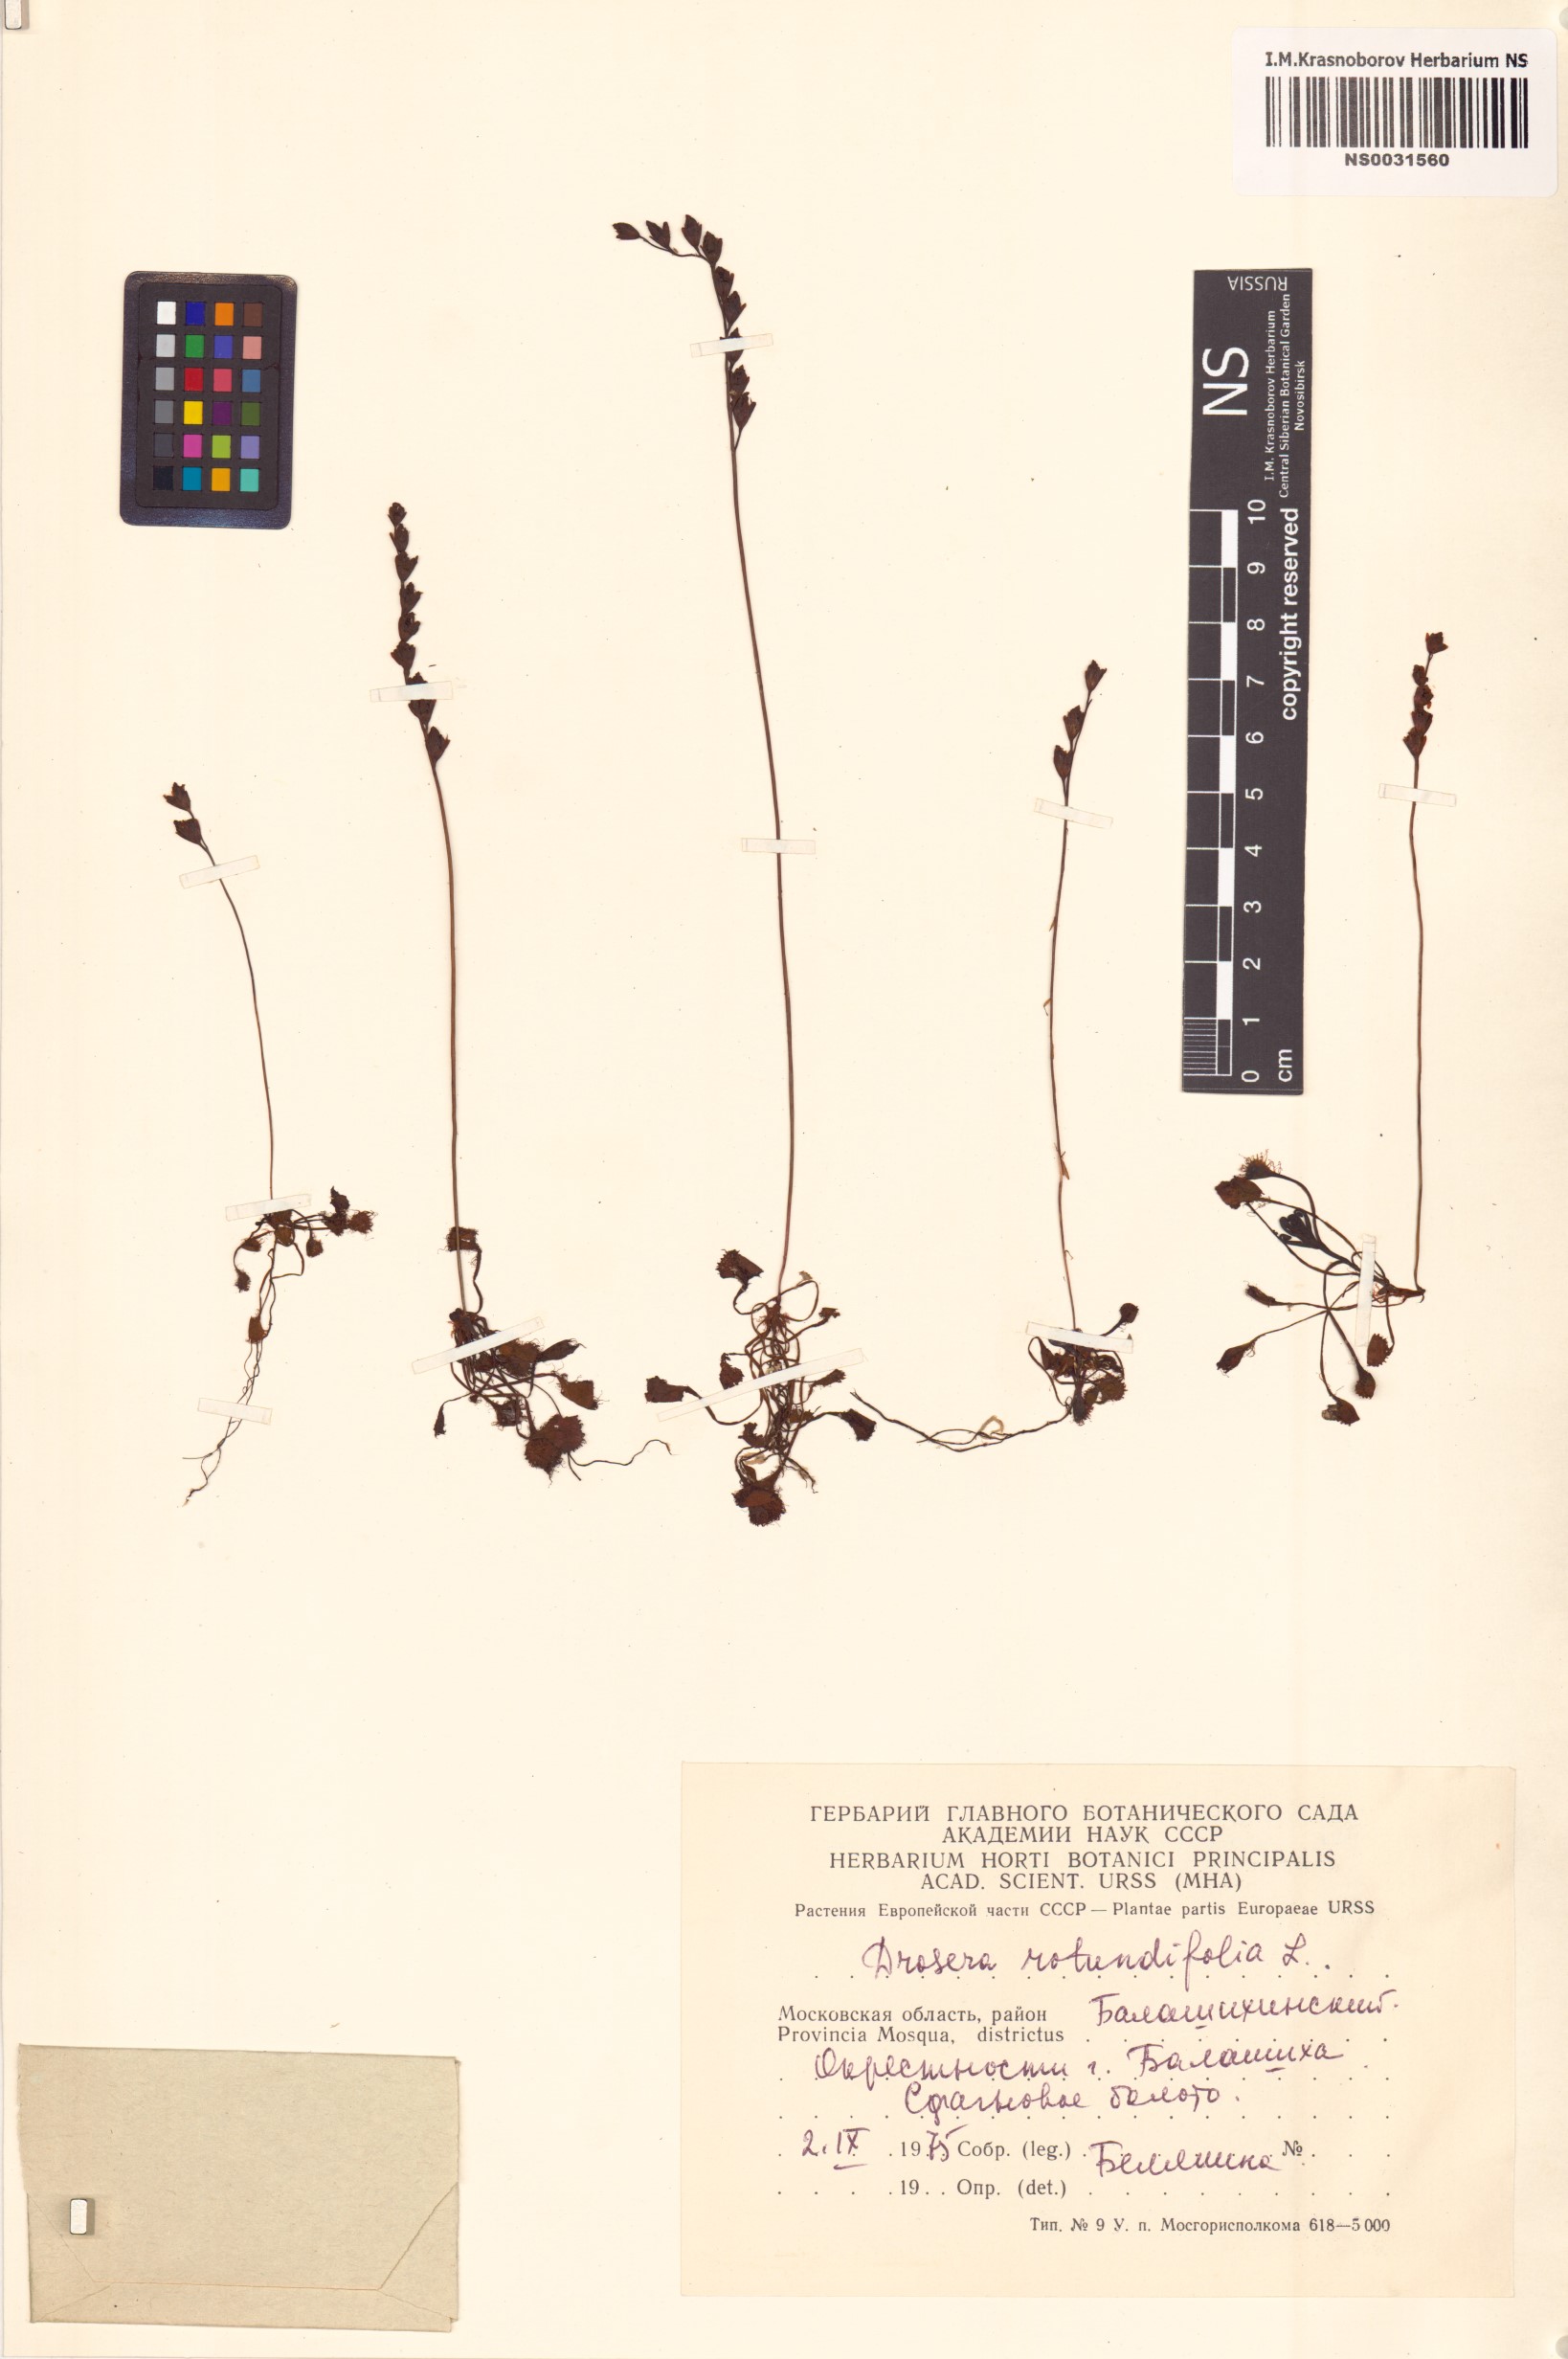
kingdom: Plantae
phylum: Tracheophyta
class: Magnoliopsida
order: Caryophyllales
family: Droseraceae
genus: Drosera
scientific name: Drosera rotundifolia
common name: Round-leaved sundew
